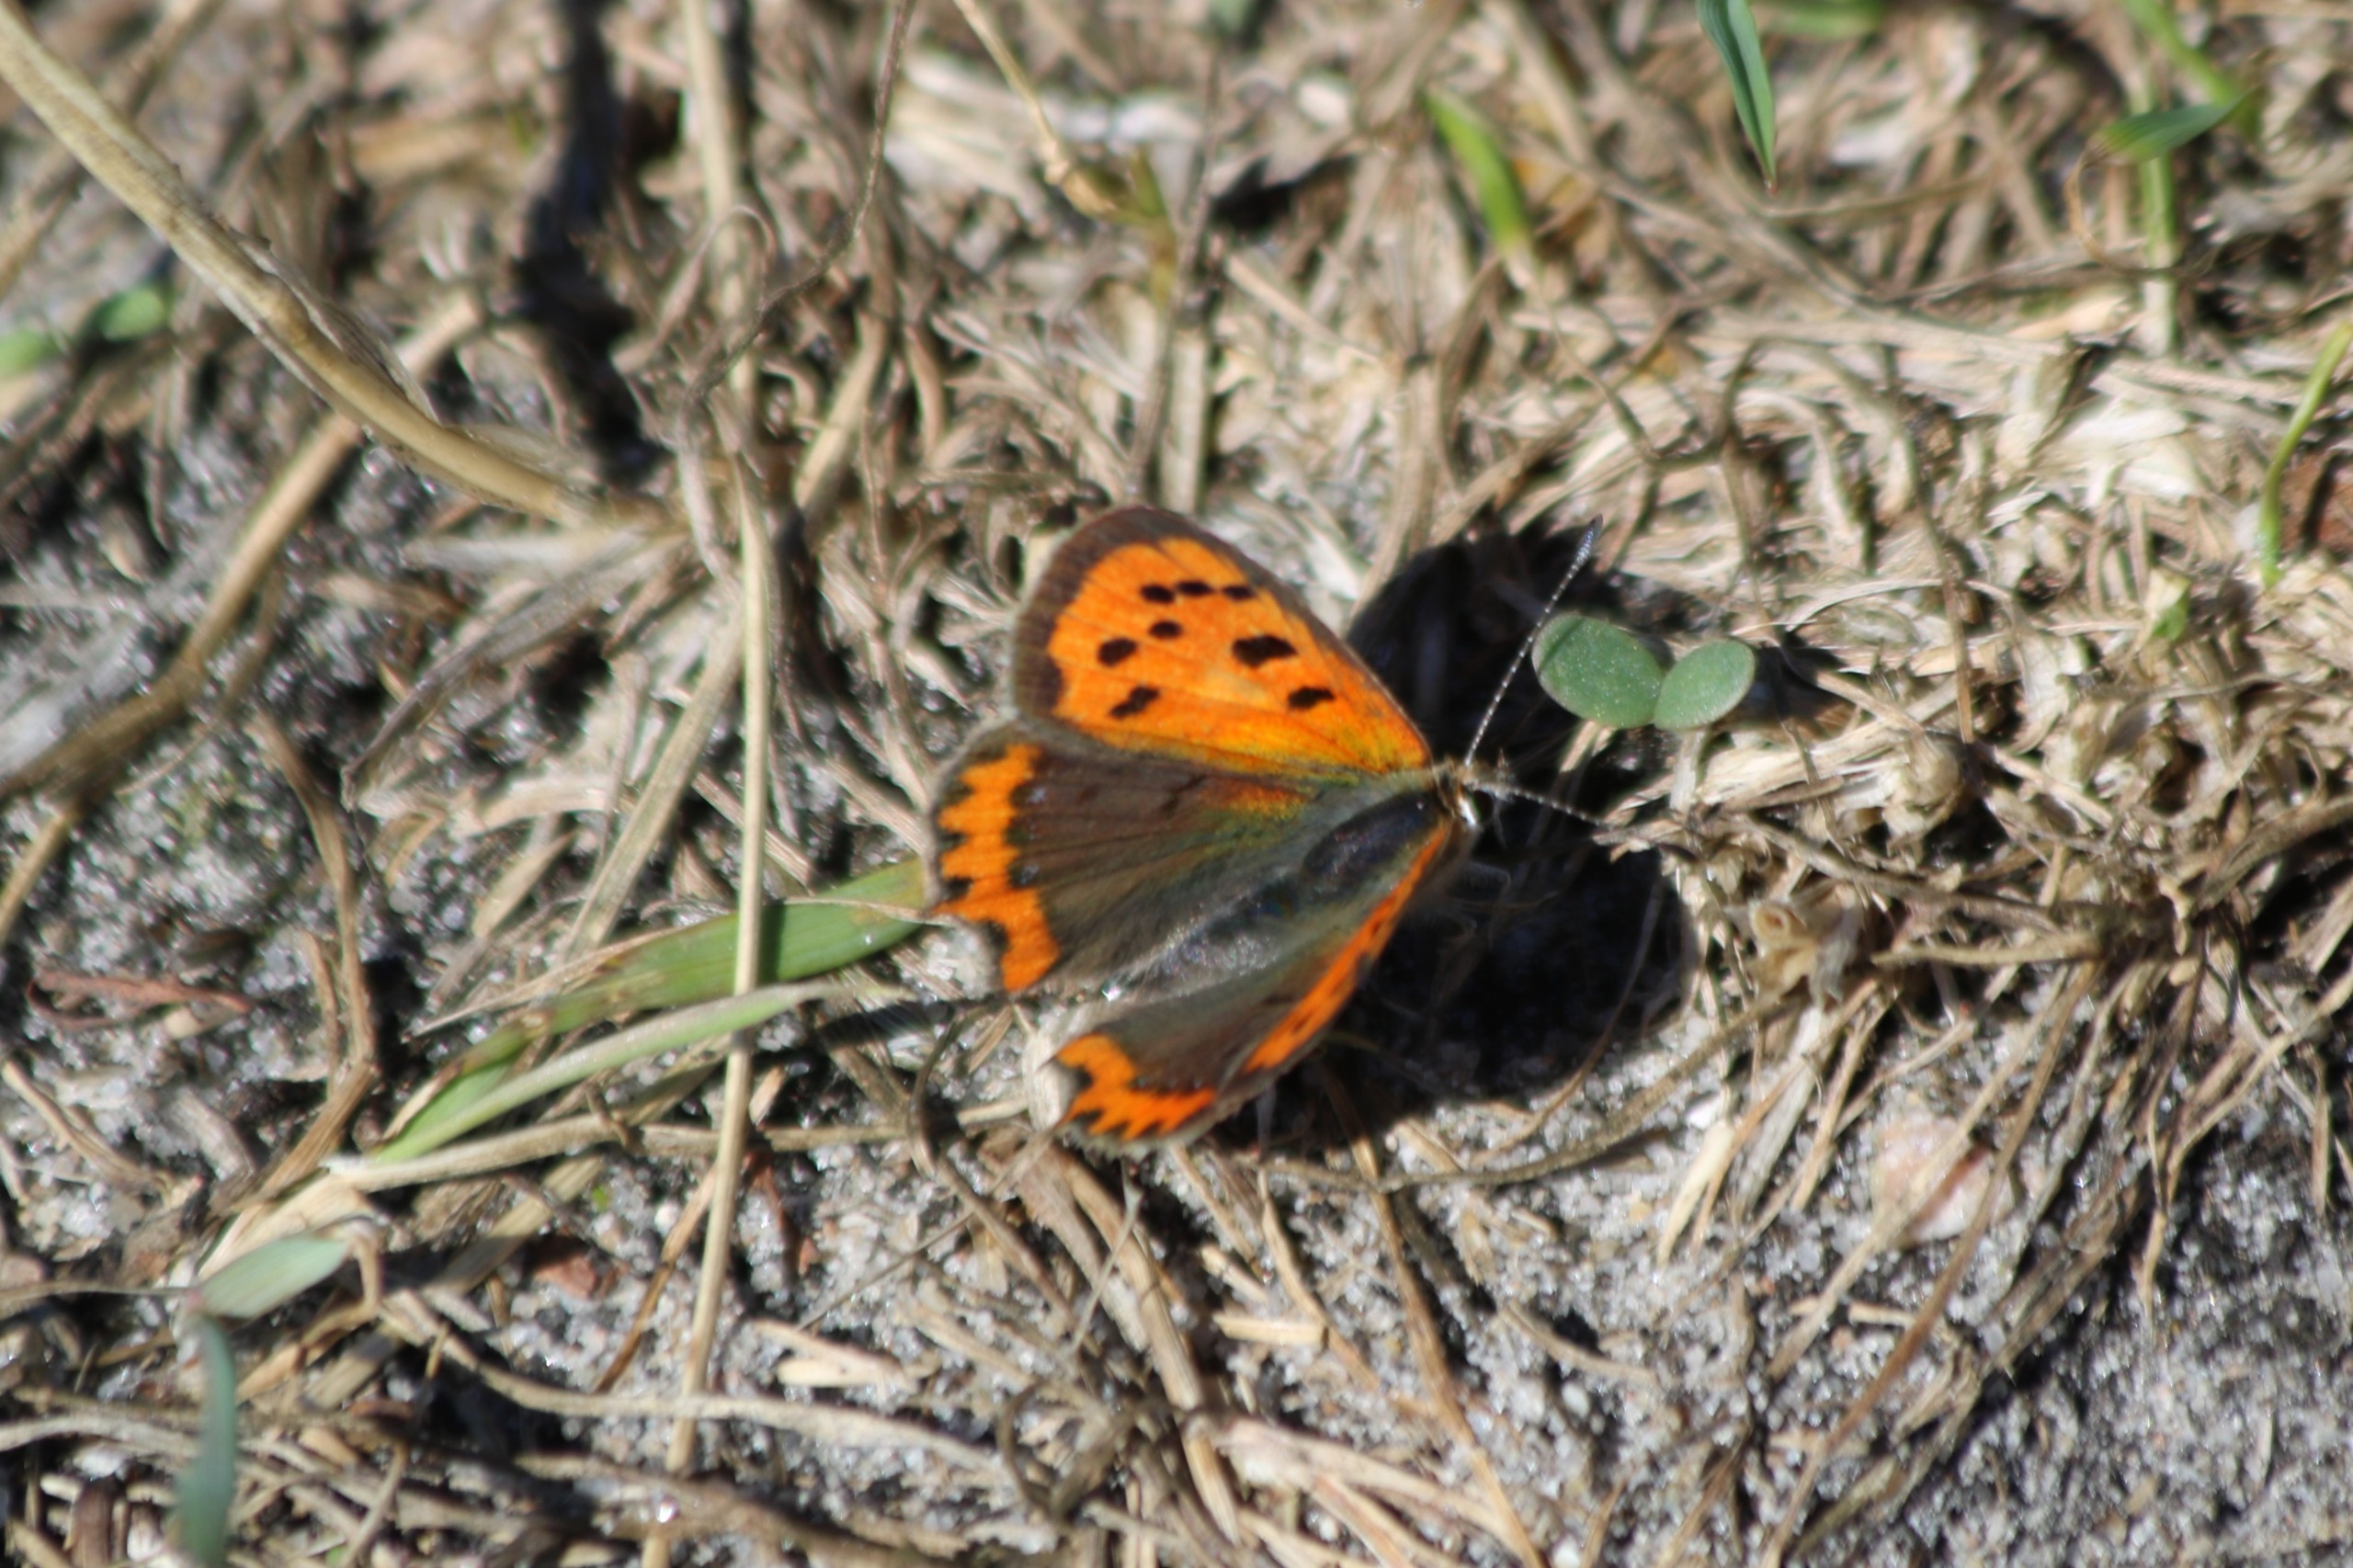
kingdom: Animalia
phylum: Arthropoda
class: Insecta
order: Lepidoptera
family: Lycaenidae
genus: Lycaena
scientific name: Lycaena phlaeas
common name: Lille ildfugl
